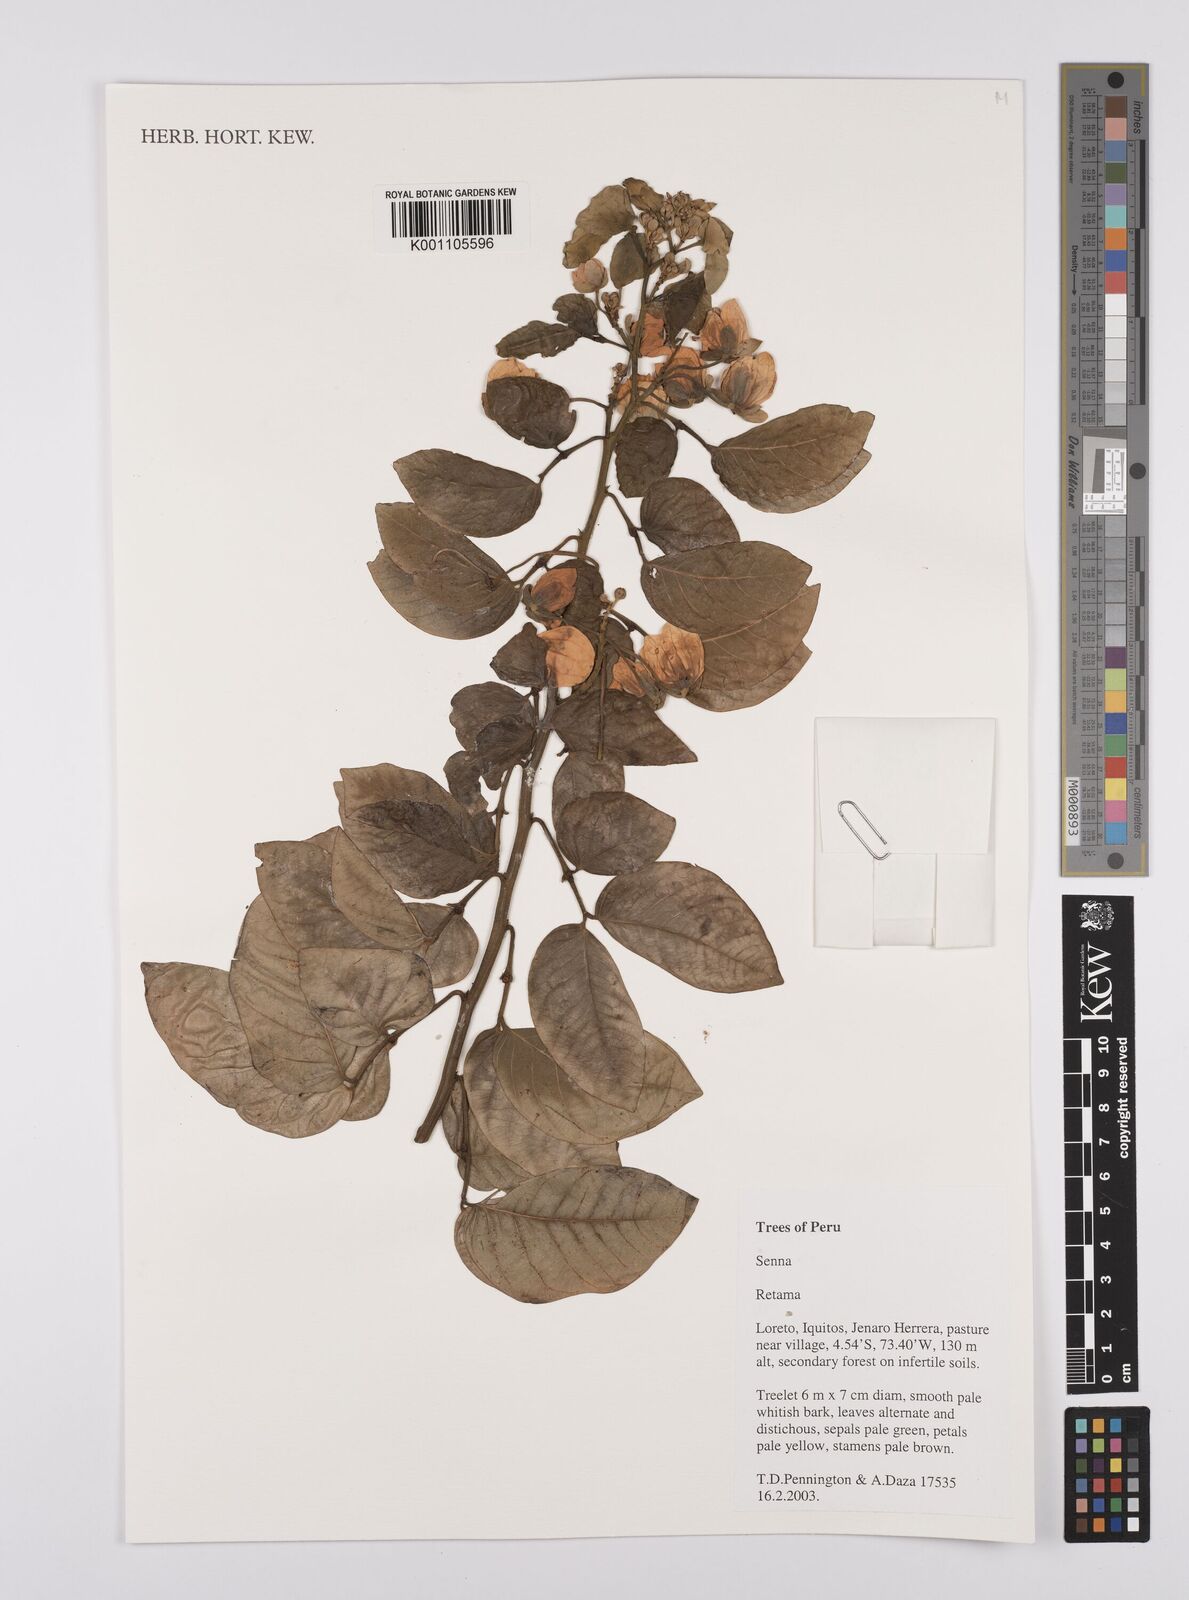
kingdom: Plantae
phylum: Tracheophyta
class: Magnoliopsida
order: Fabales
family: Fabaceae
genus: Senna
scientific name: Senna
